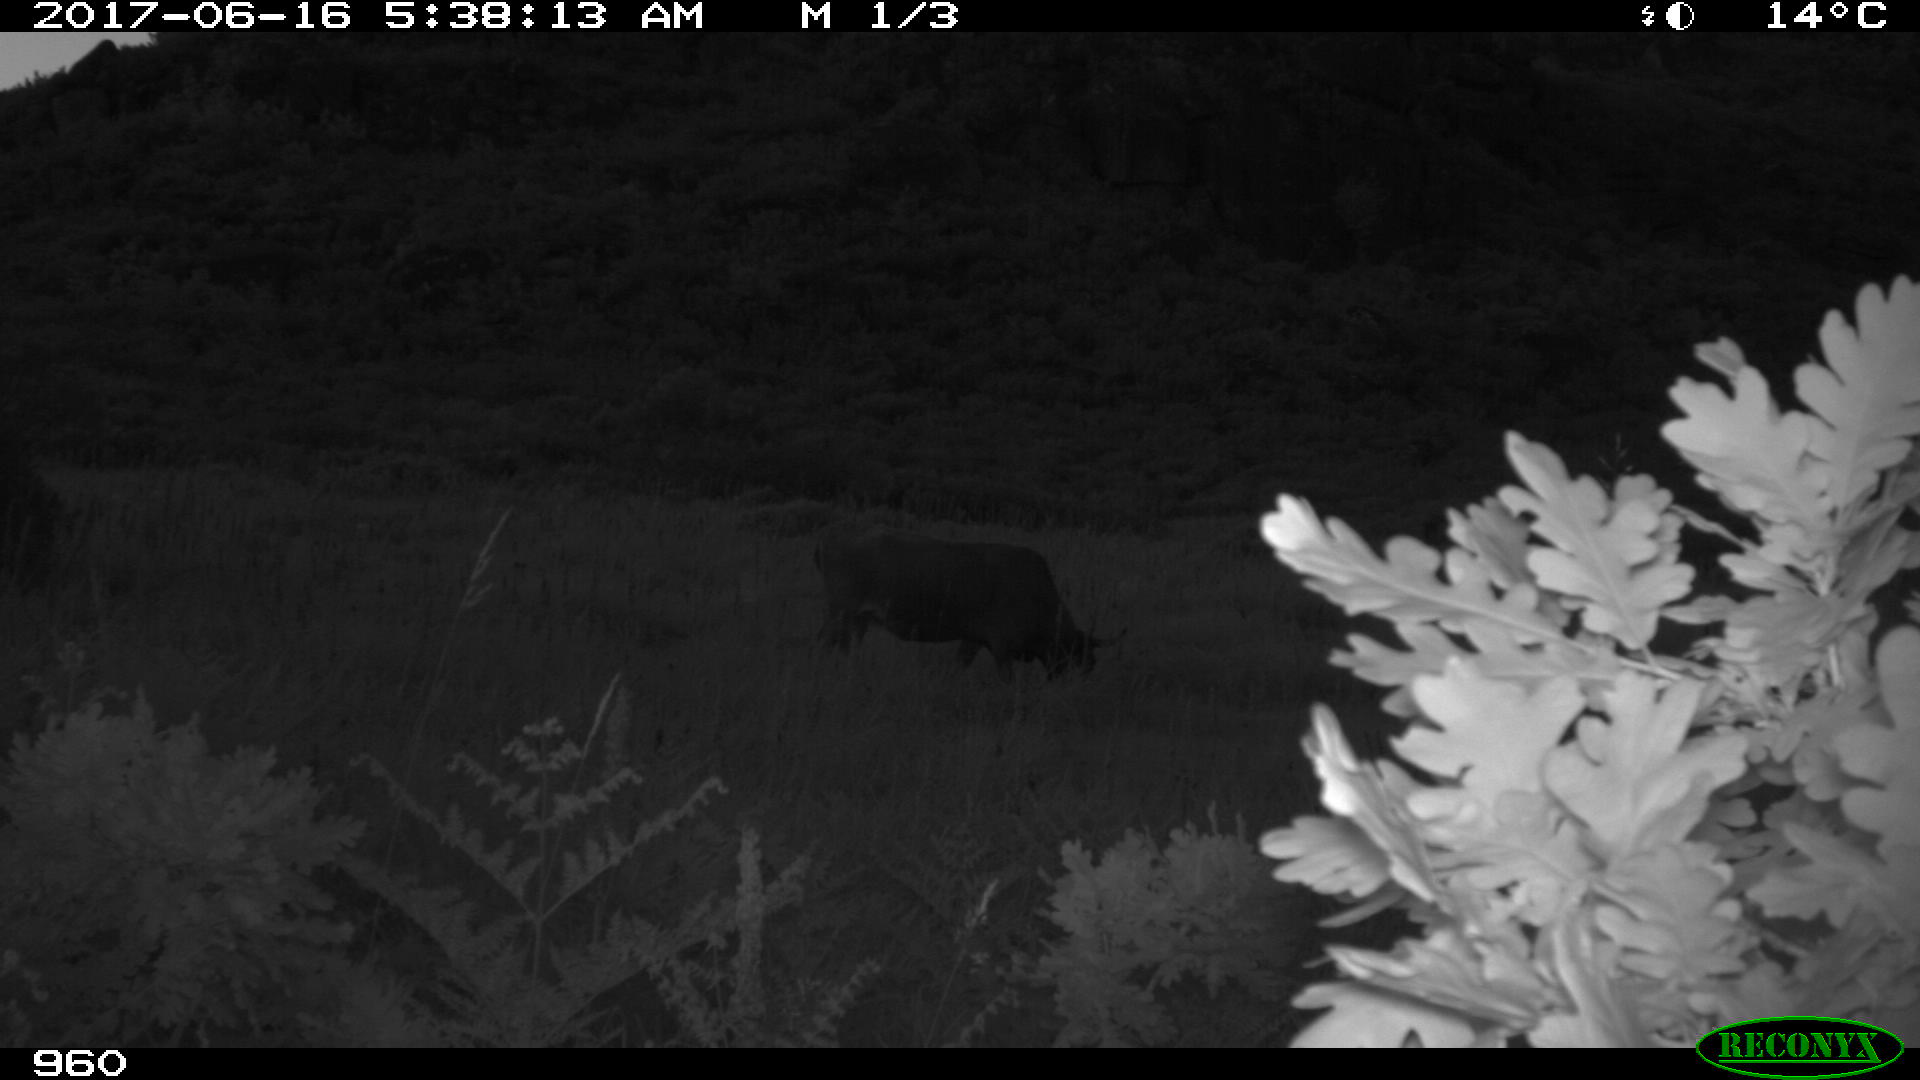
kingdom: Animalia
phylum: Chordata
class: Mammalia
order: Artiodactyla
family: Bovidae
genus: Bos
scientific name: Bos taurus
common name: Domesticated cattle
